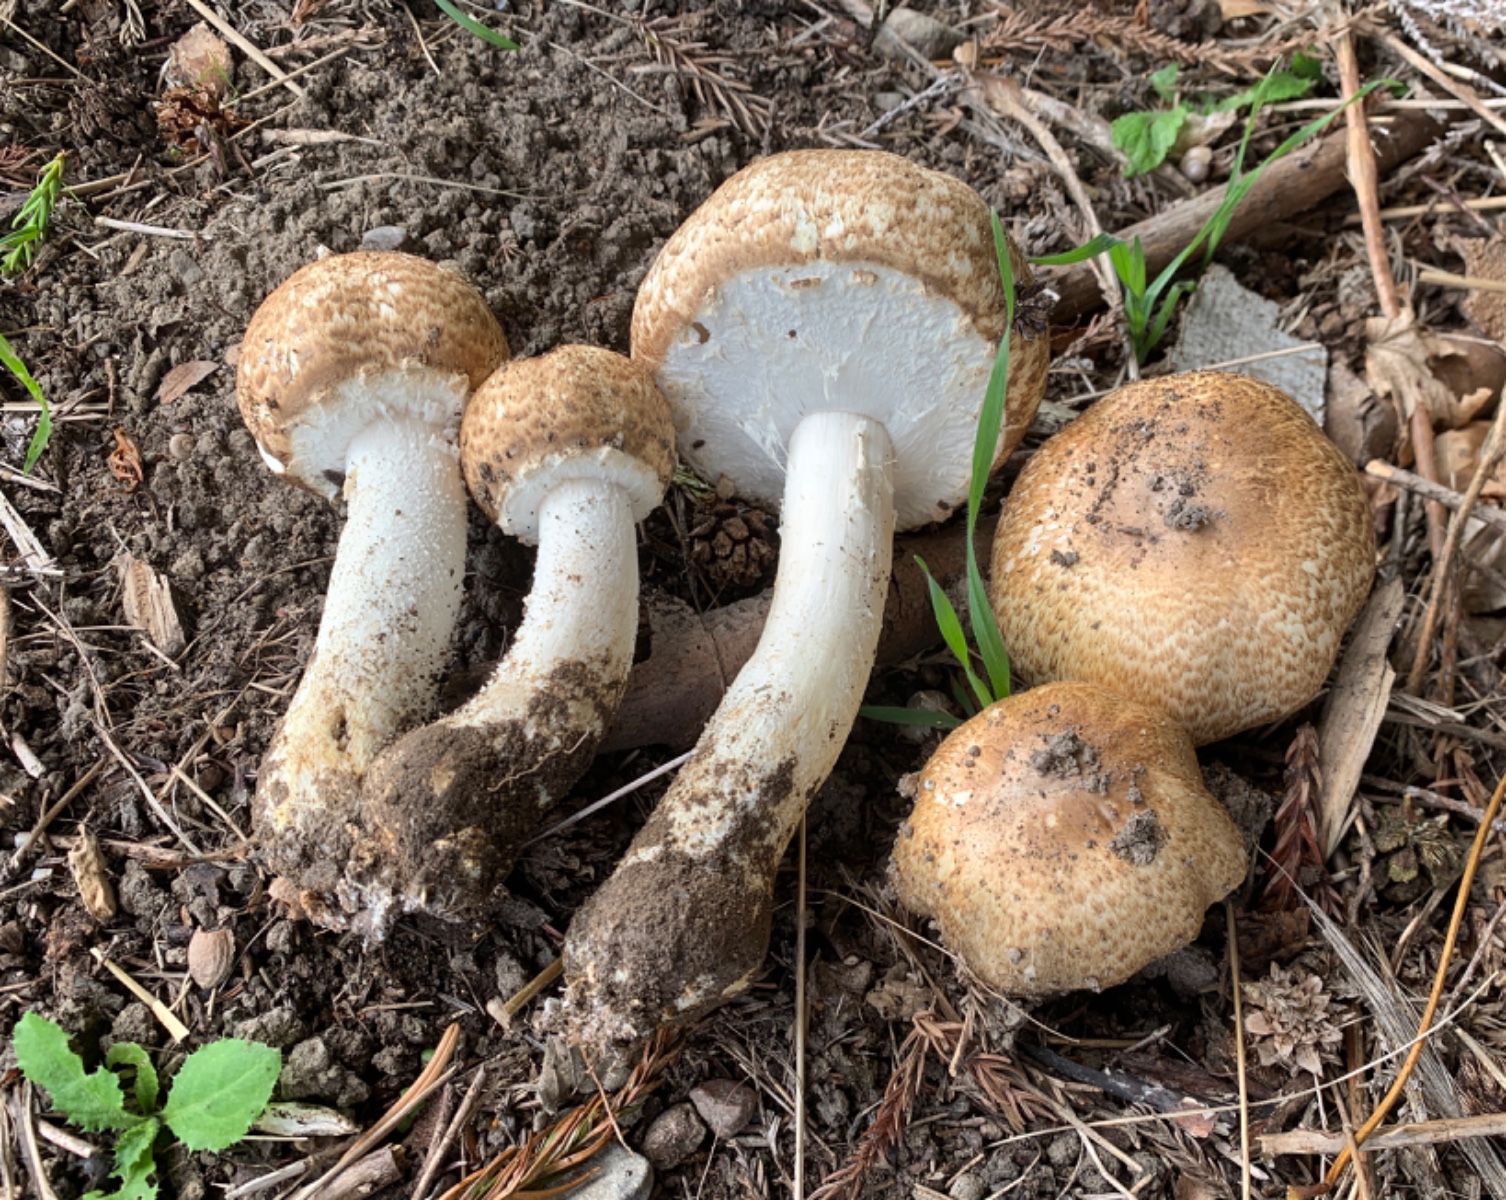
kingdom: Fungi
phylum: Basidiomycota
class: Agaricomycetes
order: Agaricales
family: Agaricaceae
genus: Agaricus
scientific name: Agaricus augustus
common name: prægtig champignon
